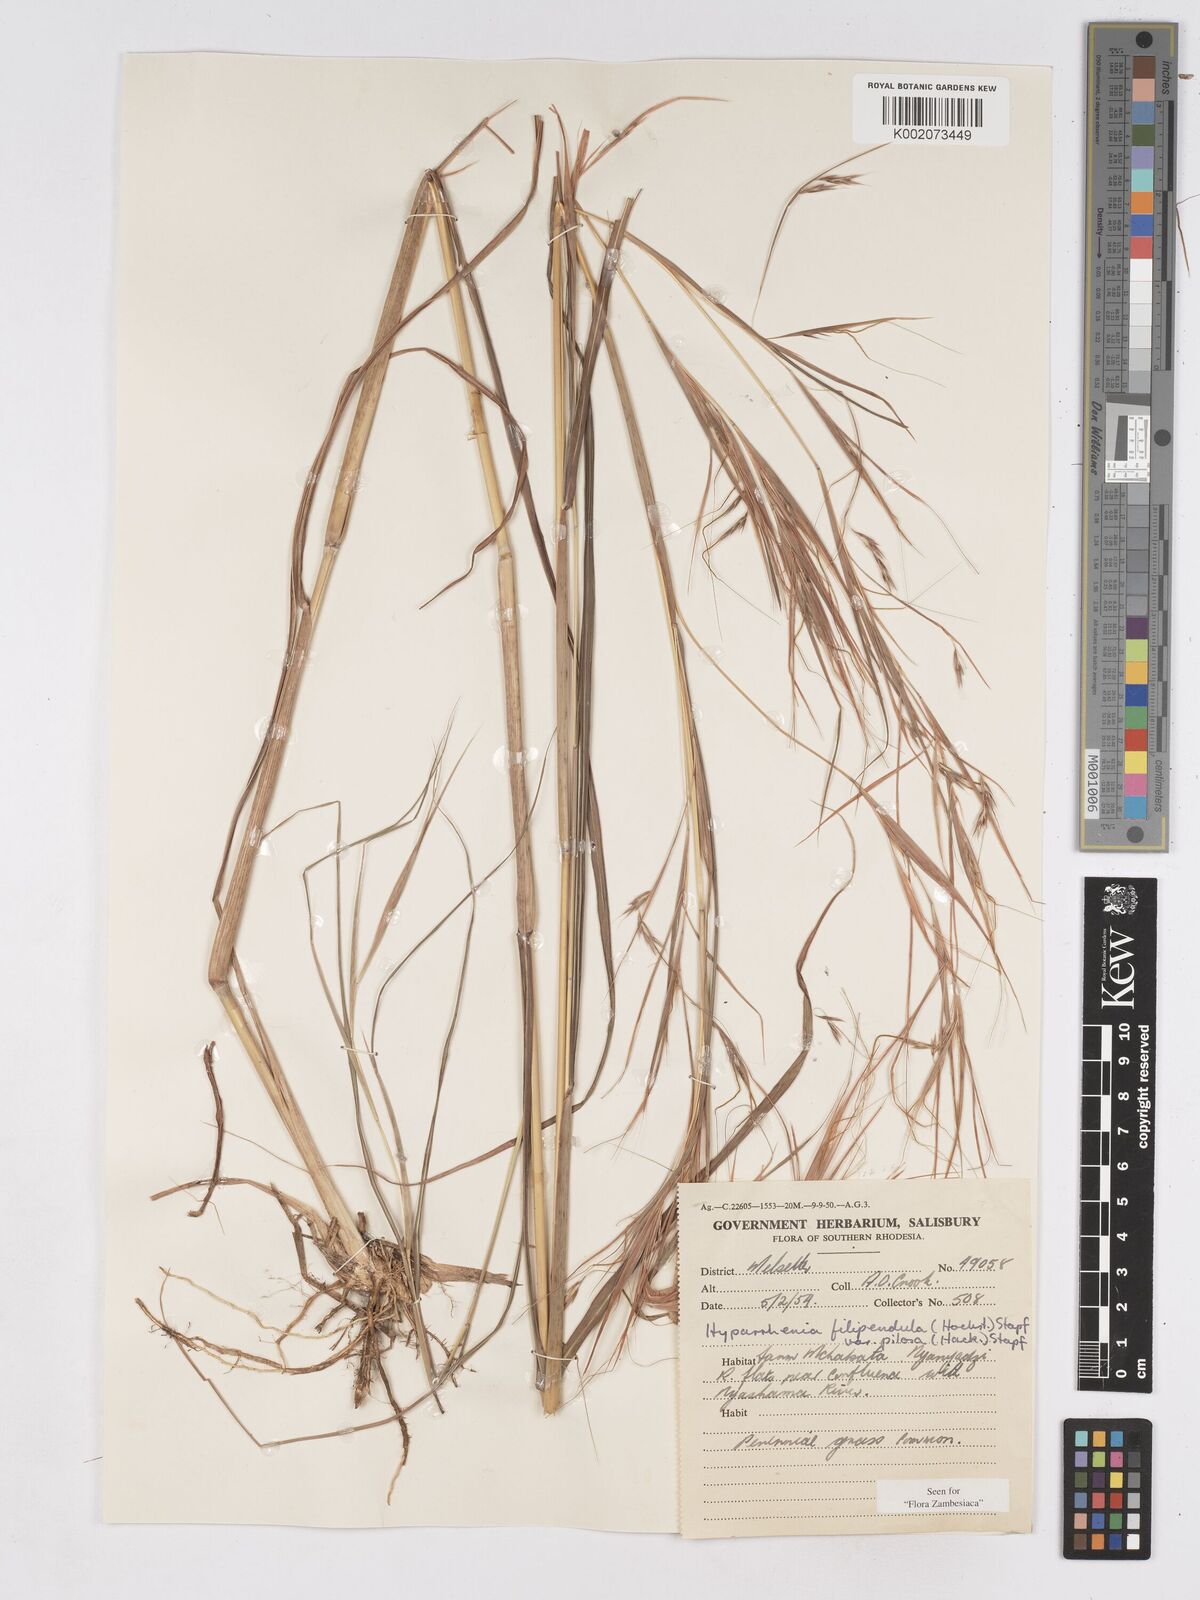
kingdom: Plantae
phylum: Tracheophyta
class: Liliopsida
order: Poales
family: Poaceae
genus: Hyparrhenia
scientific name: Hyparrhenia filipendula
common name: Tambookie grass
